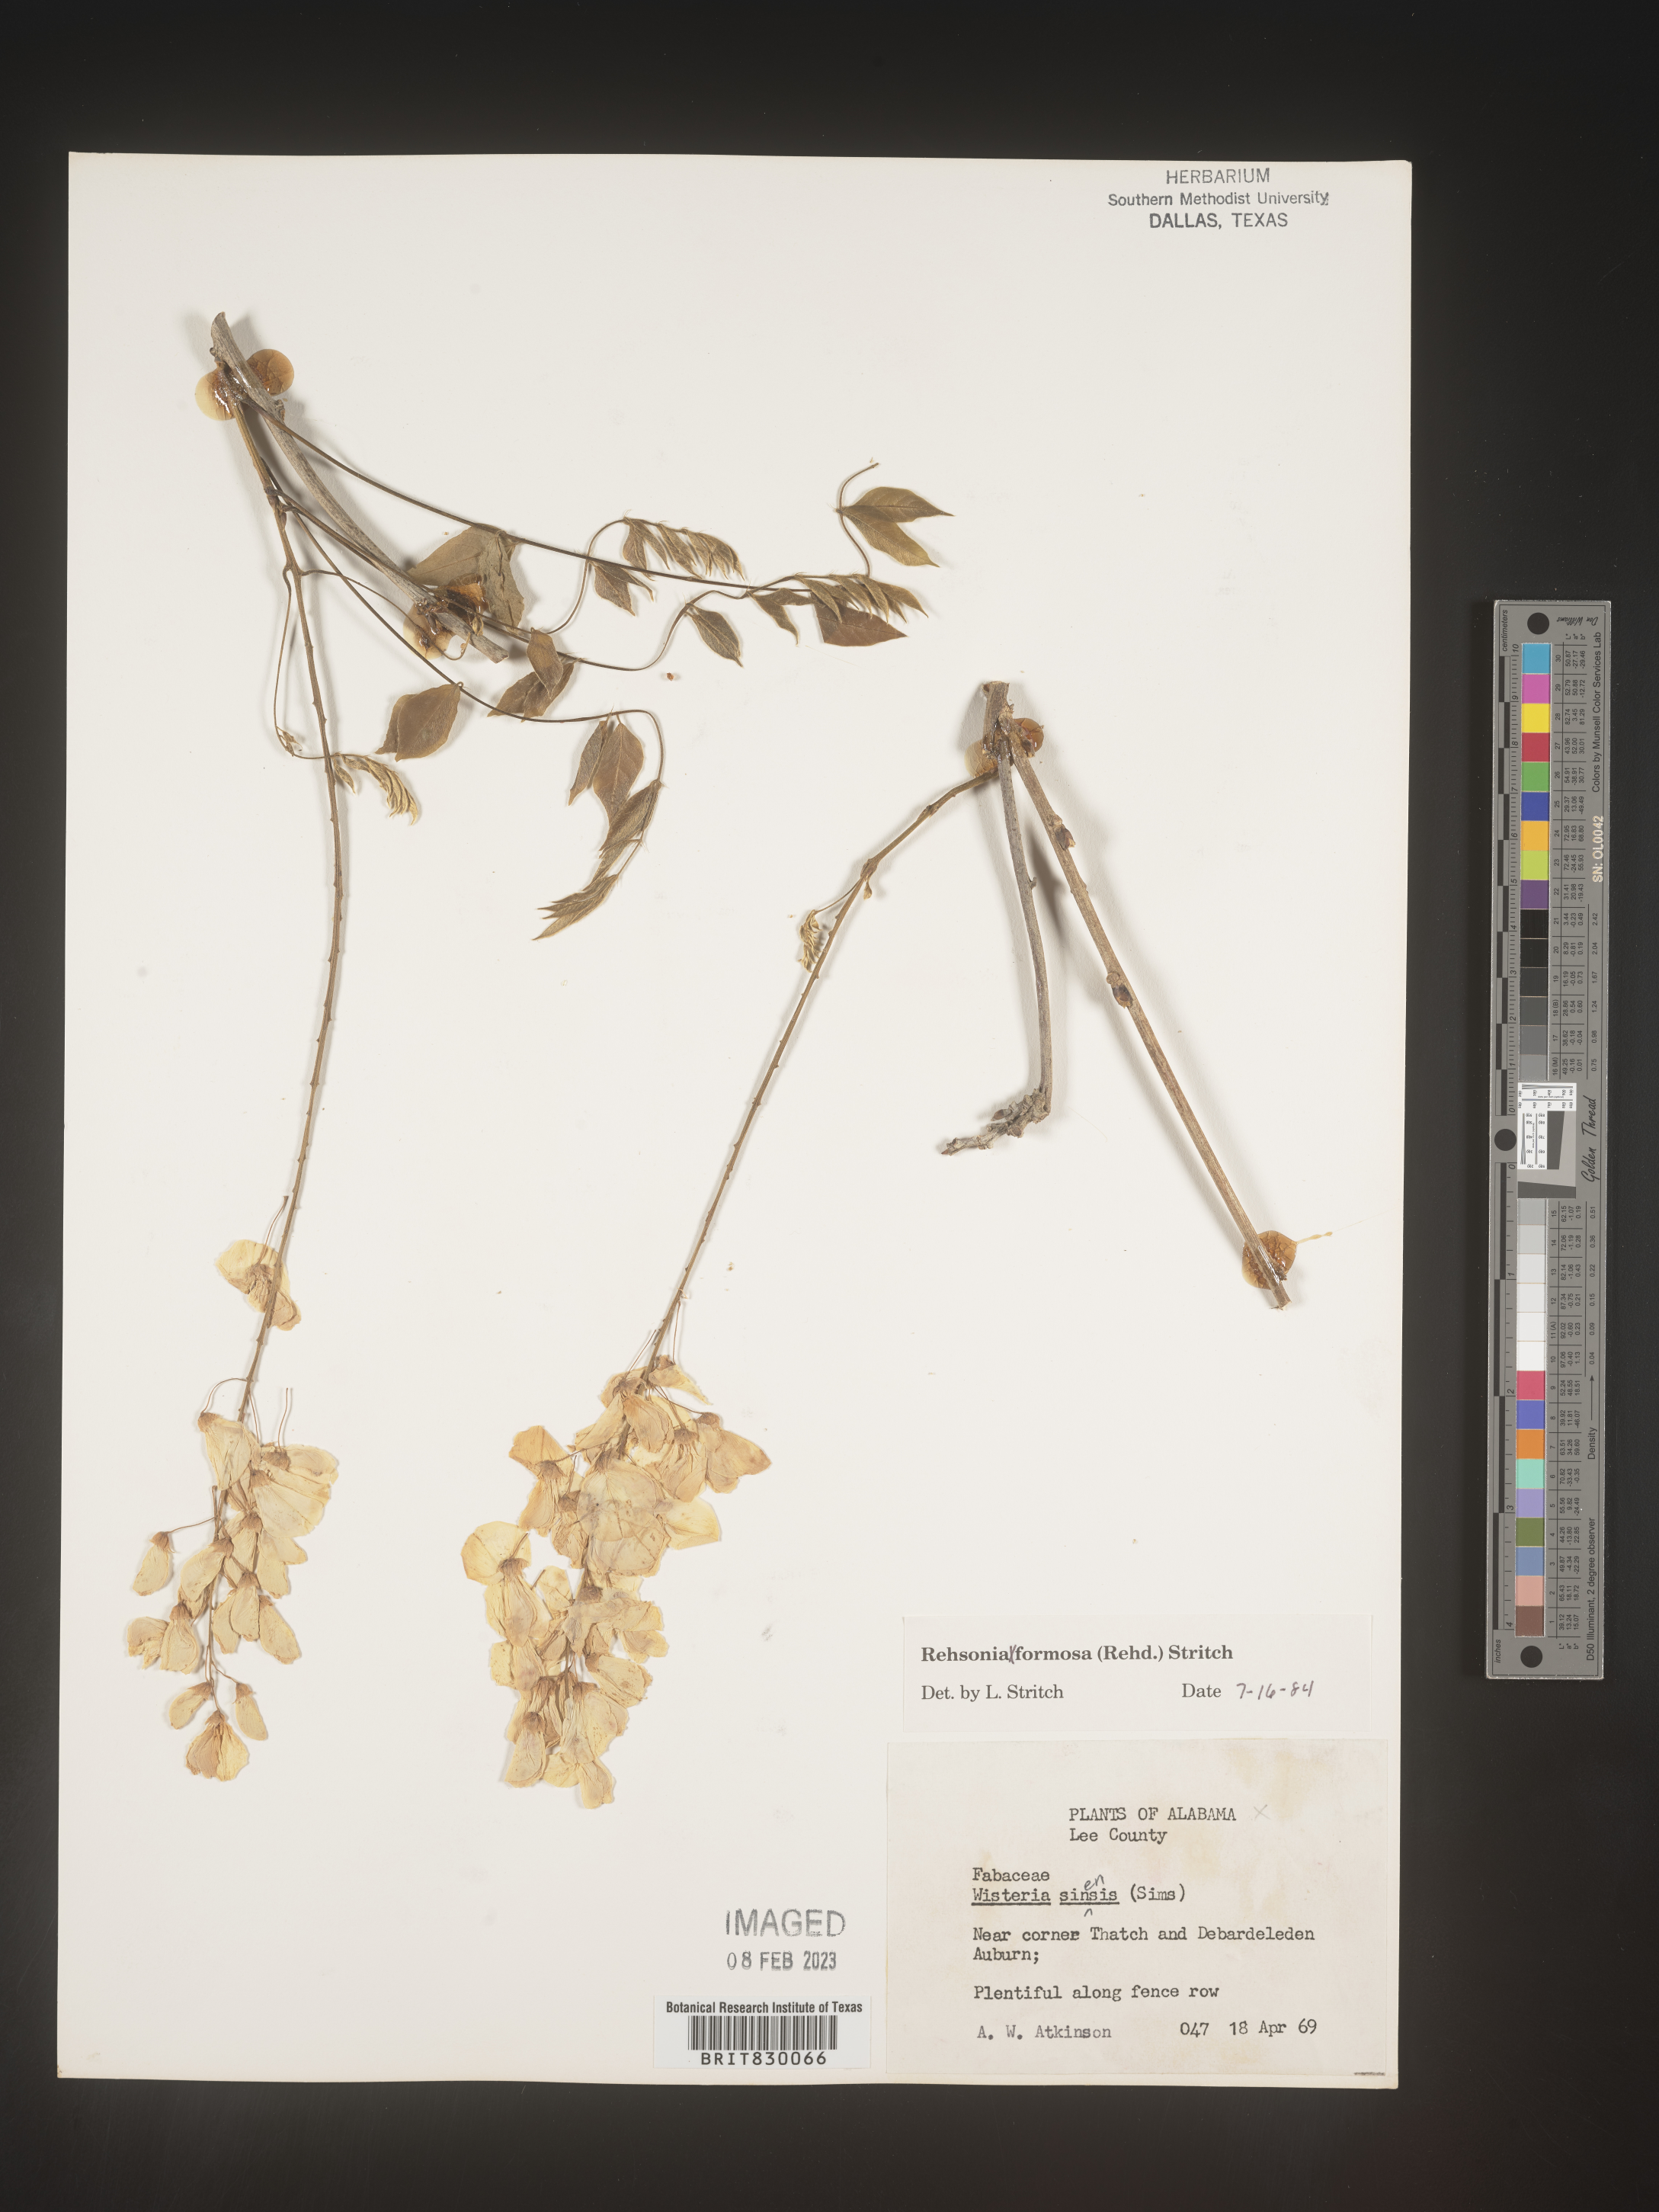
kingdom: Plantae
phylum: Tracheophyta
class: Magnoliopsida
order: Fabales
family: Fabaceae
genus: Wisteria
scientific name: Wisteria
